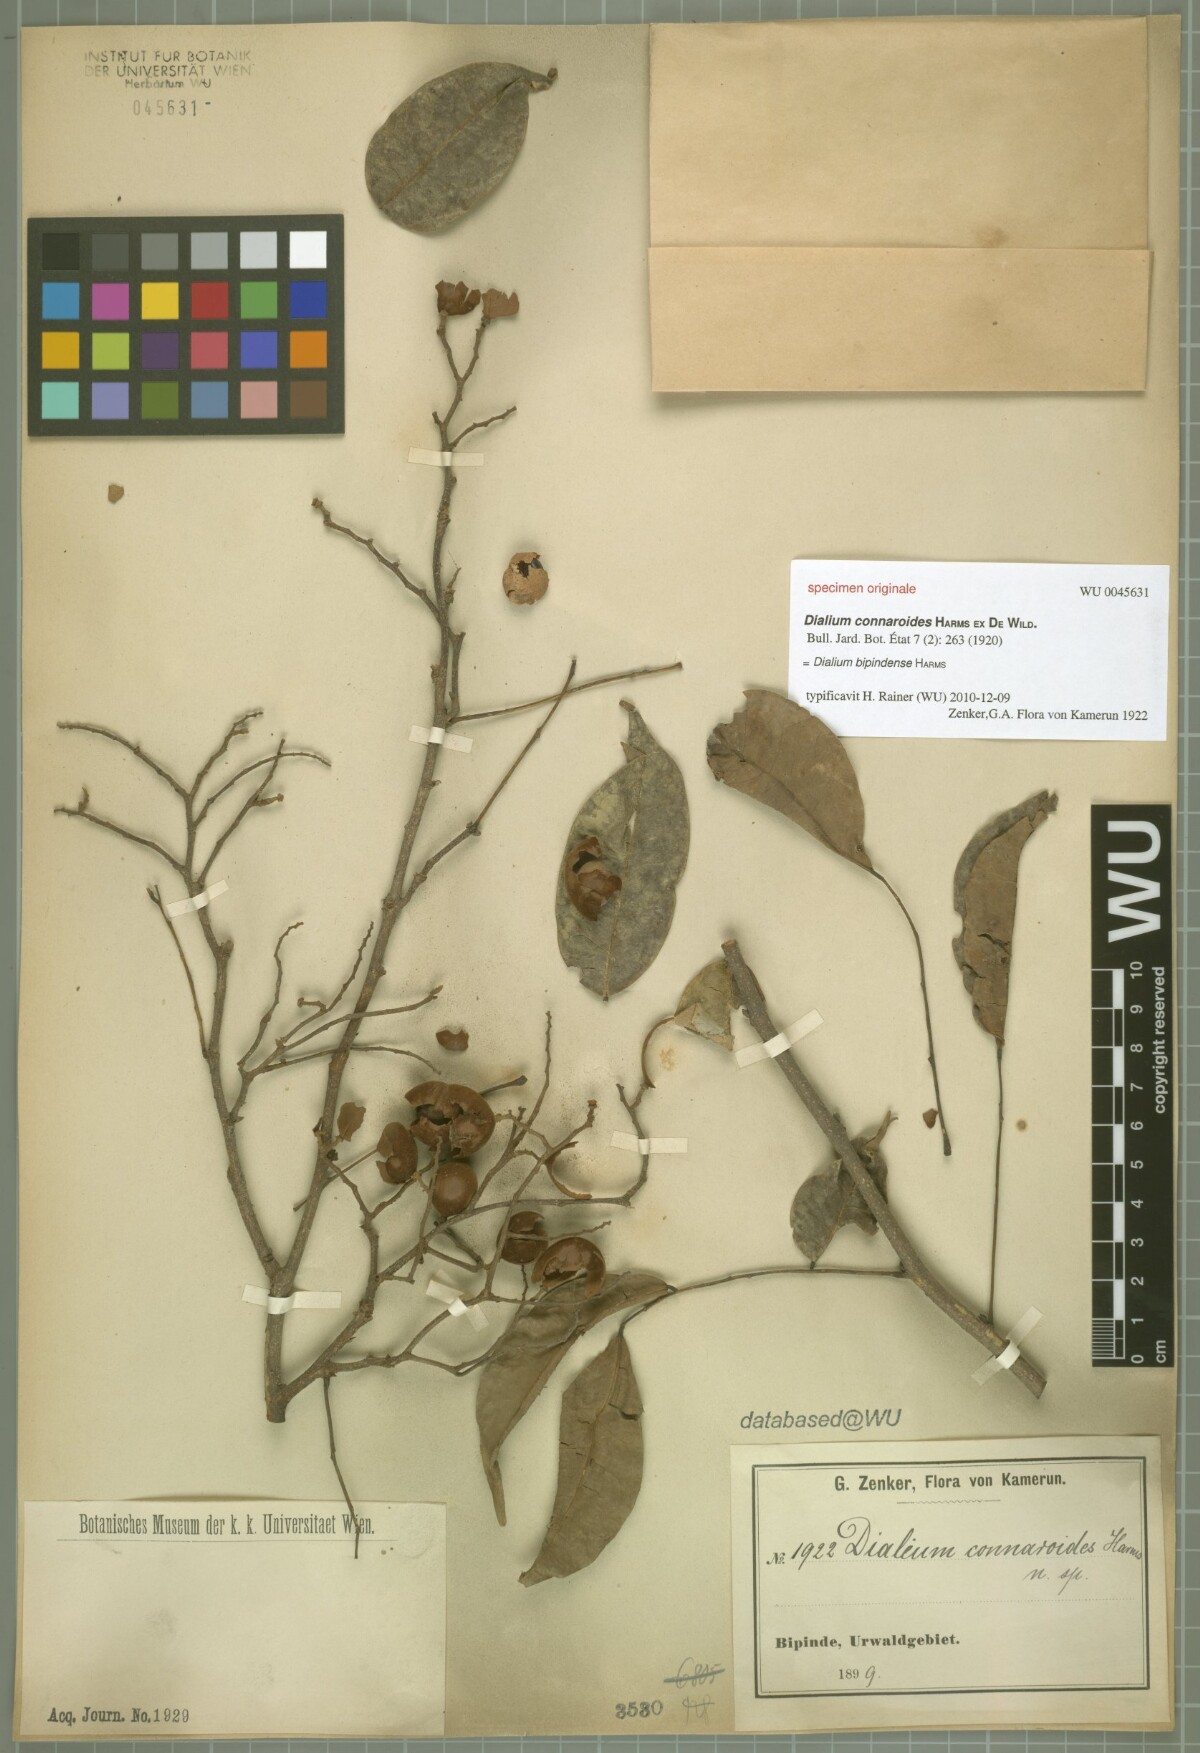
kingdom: Plantae
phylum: Tracheophyta
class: Magnoliopsida
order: Fabales
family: Fabaceae
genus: Dialium
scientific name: Dialium bipindense
